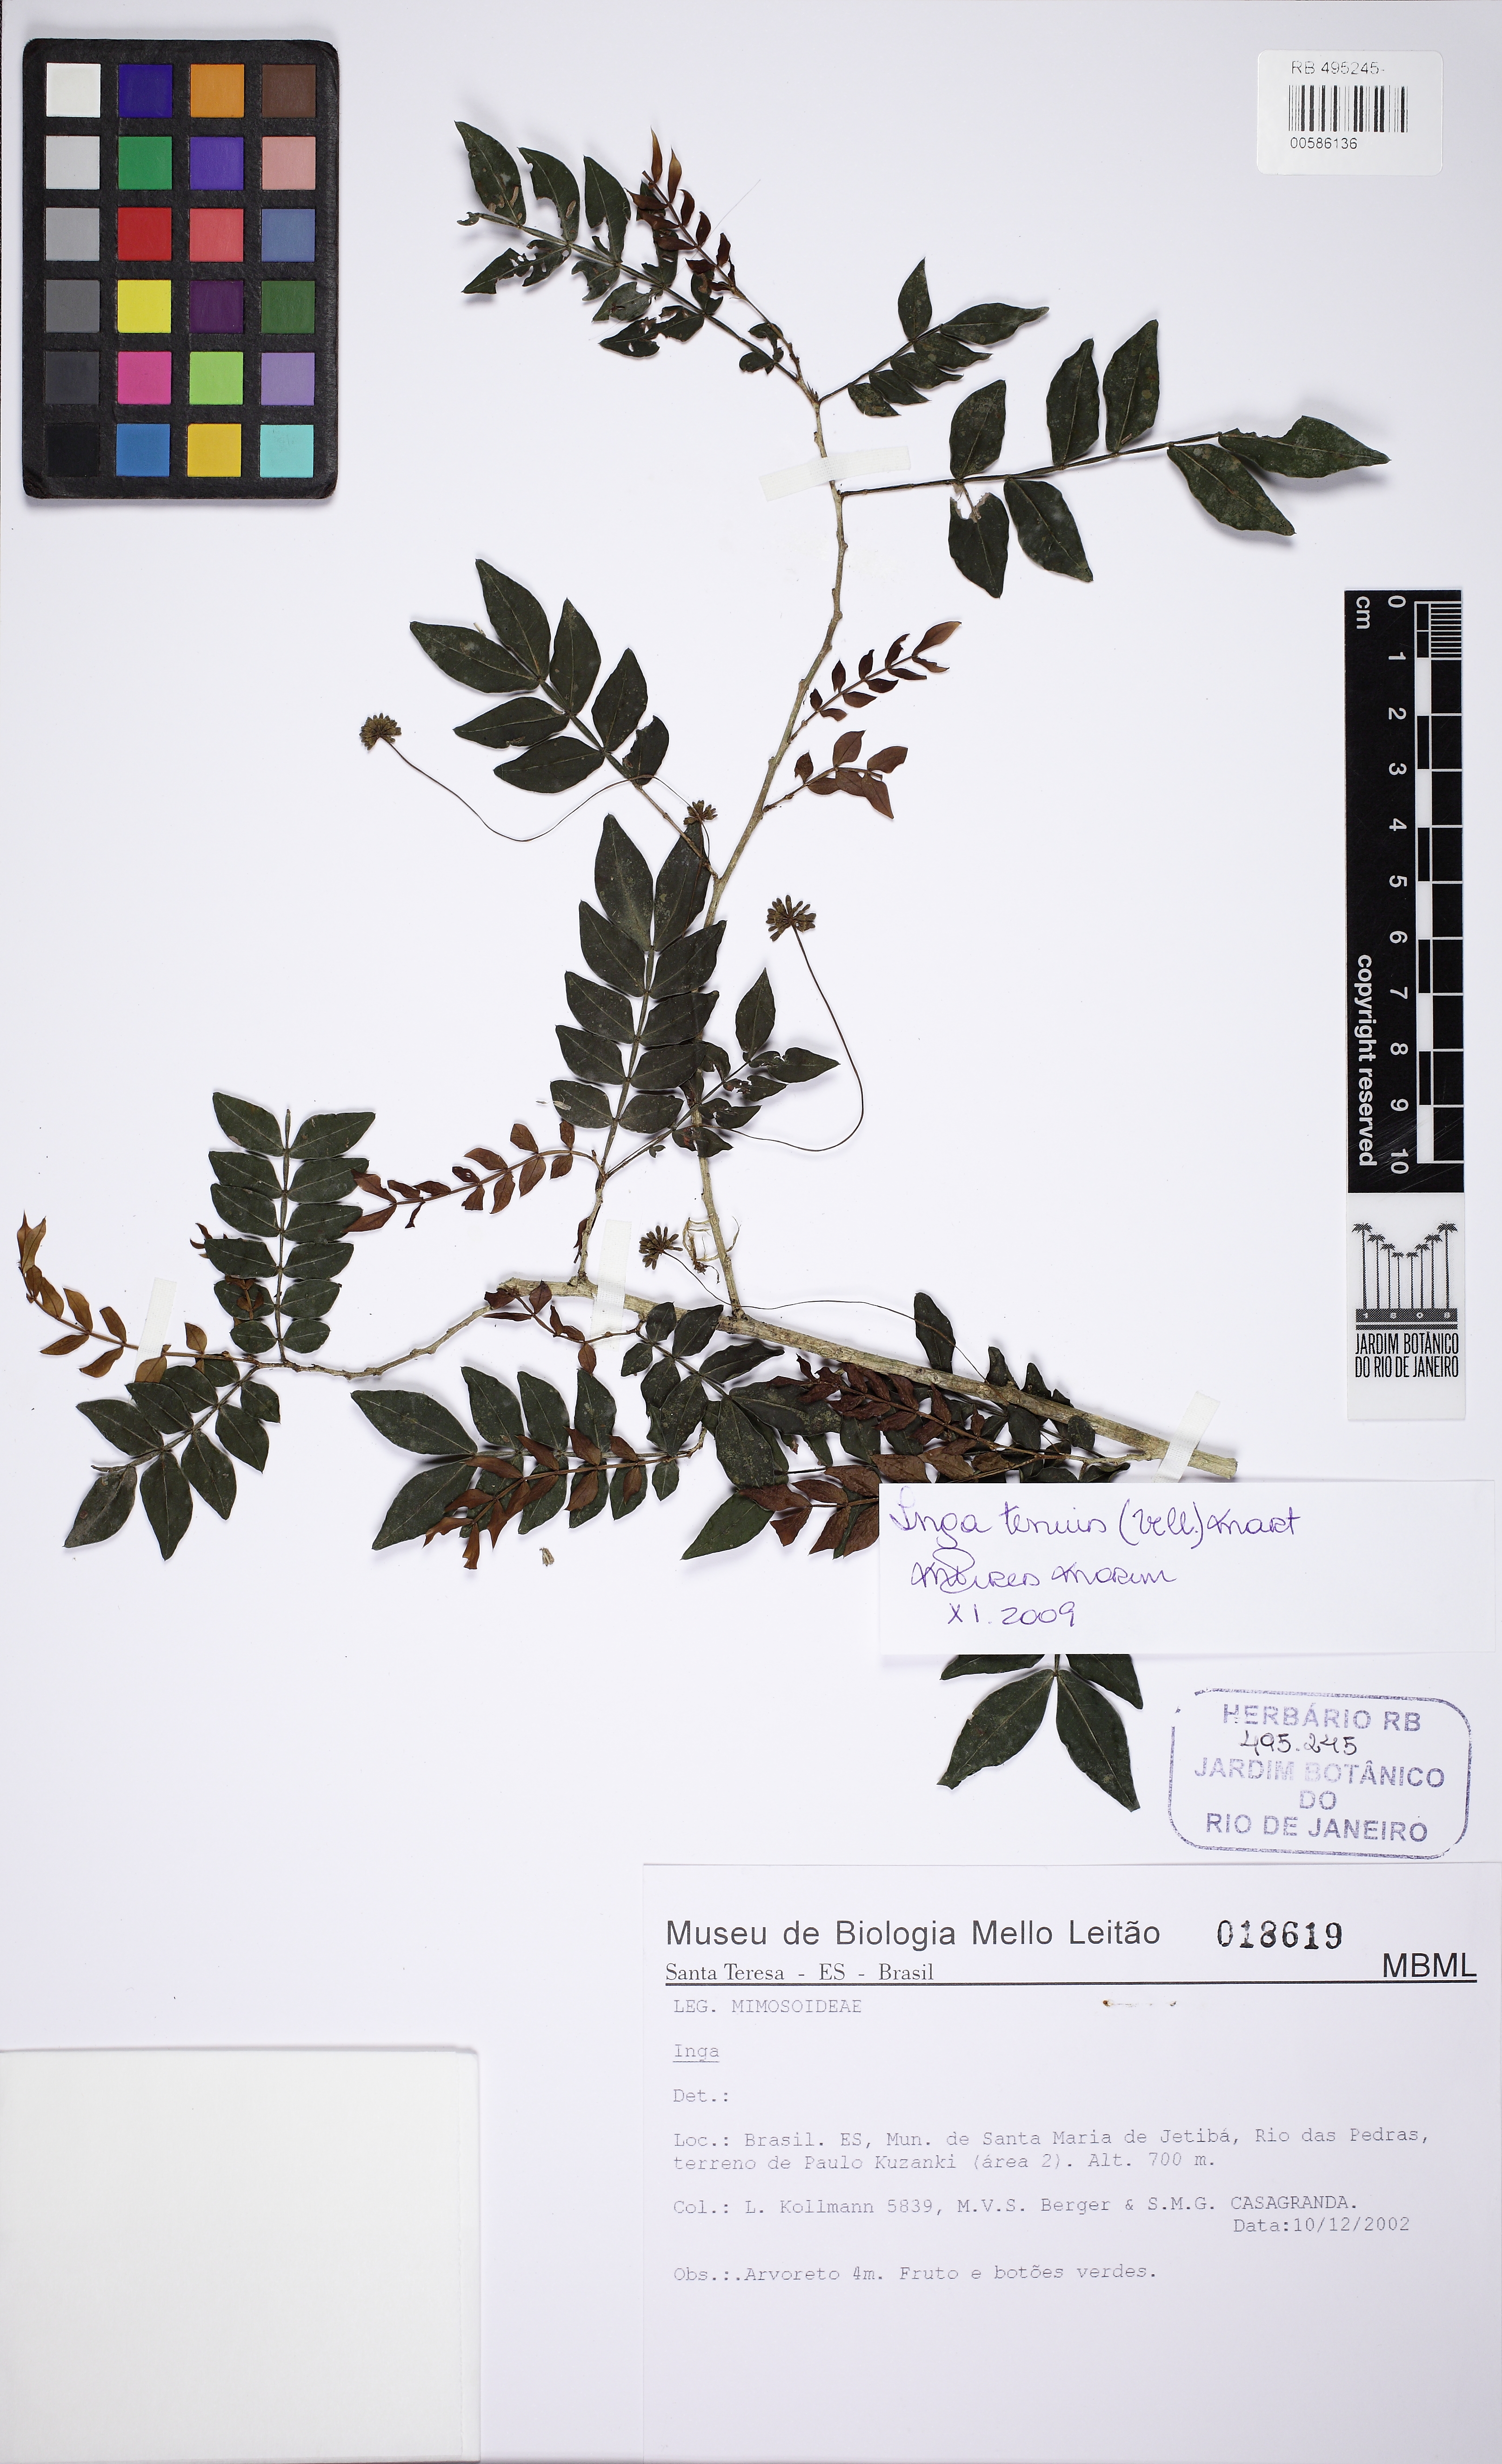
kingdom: Plantae
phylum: Tracheophyta
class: Magnoliopsida
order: Fabales
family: Fabaceae
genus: Inga
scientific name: Inga tenuis
